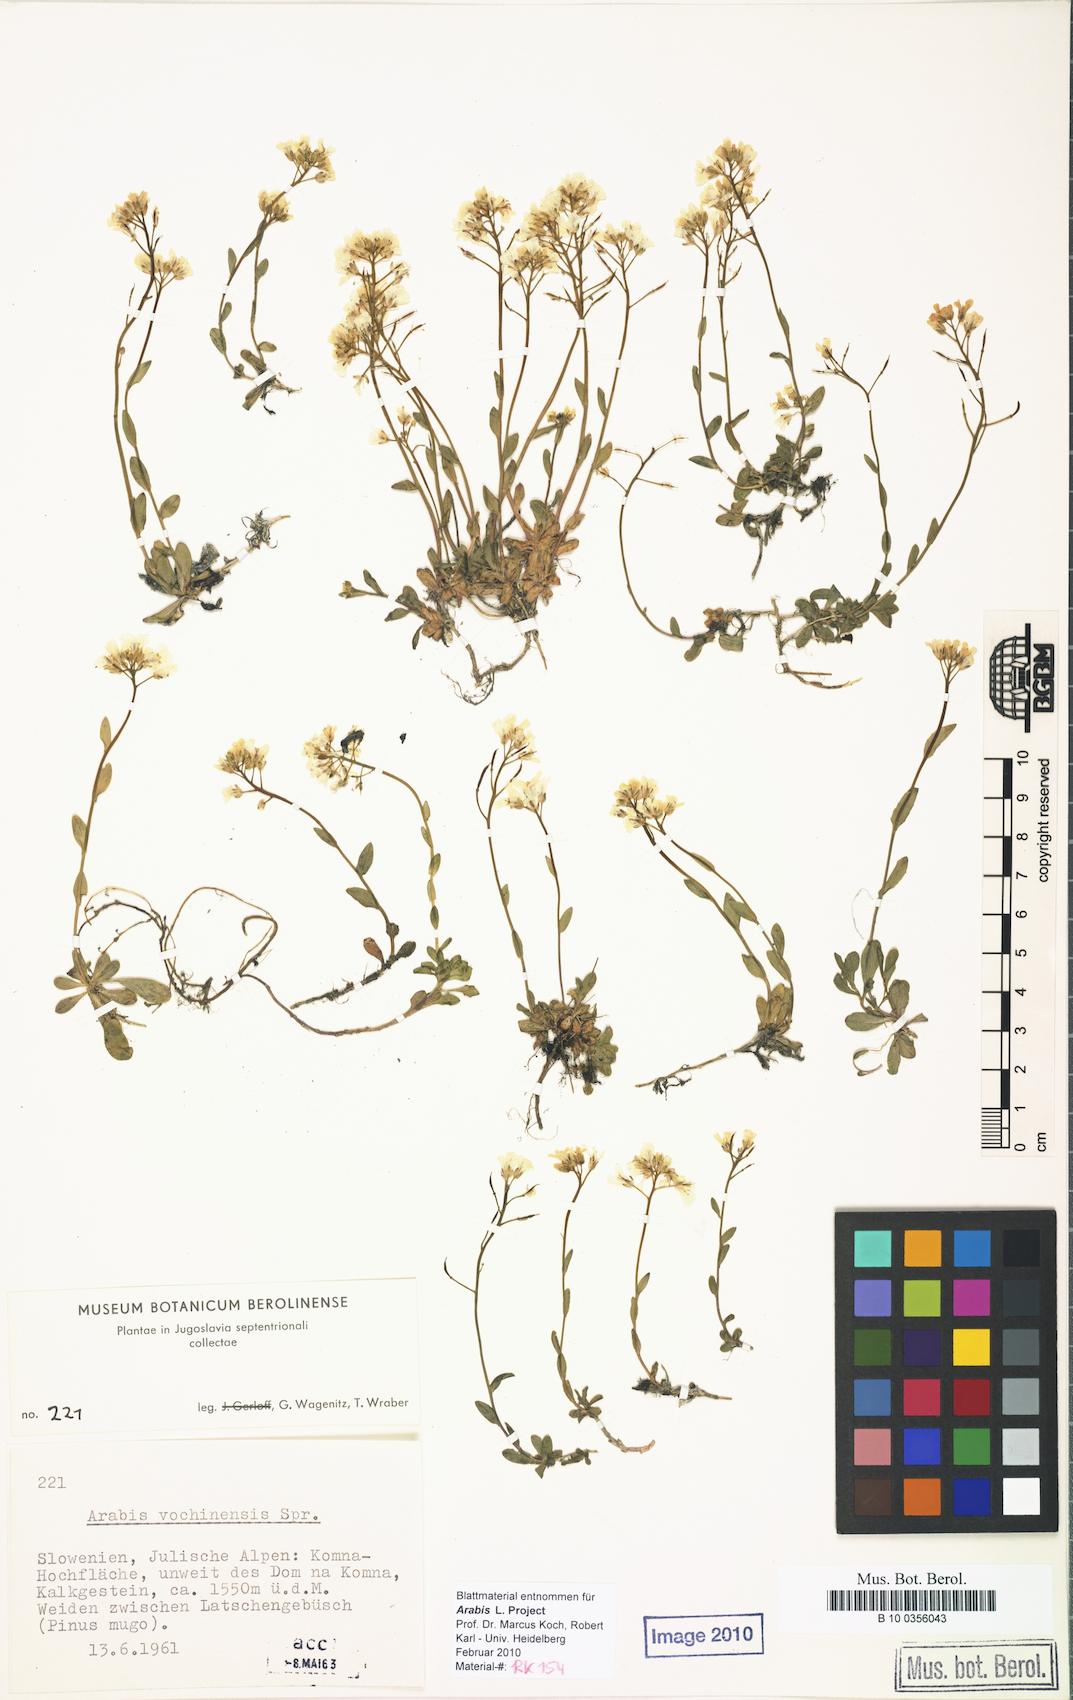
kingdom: Plantae
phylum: Tracheophyta
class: Magnoliopsida
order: Brassicales
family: Brassicaceae
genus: Arabis
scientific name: Arabis vochinensis
